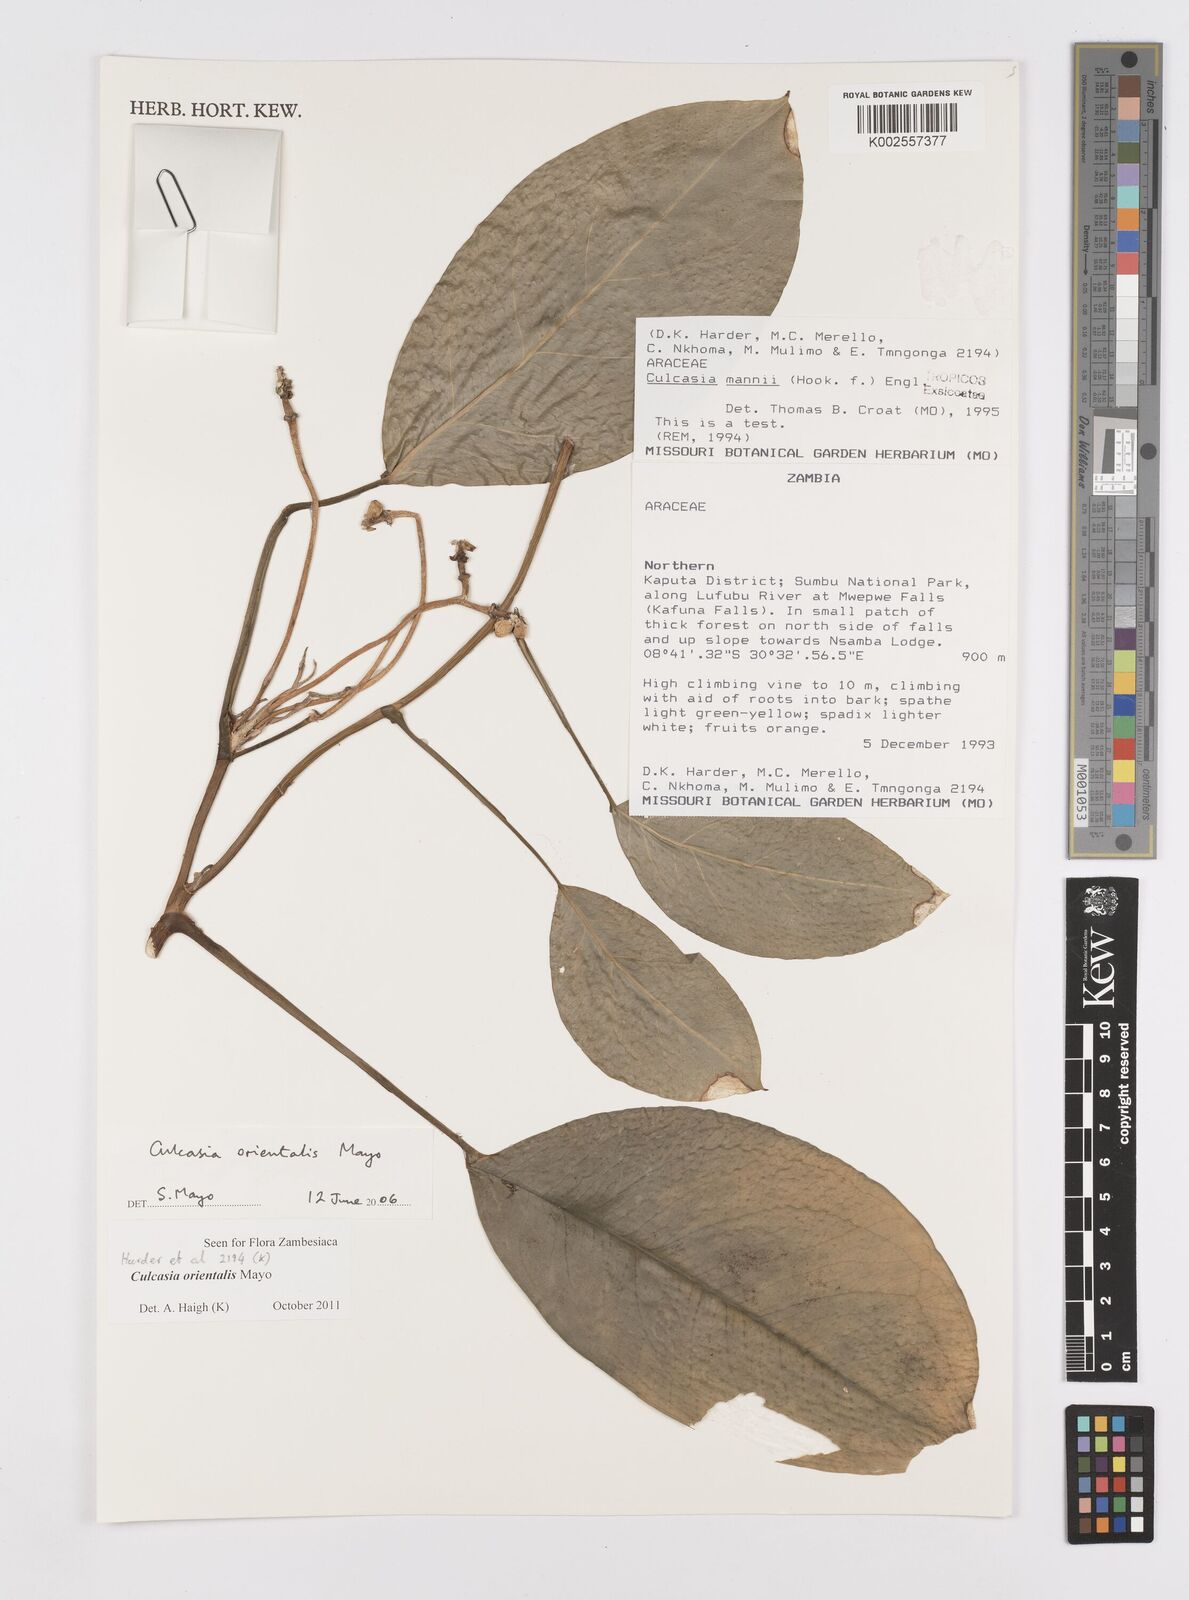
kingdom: Plantae
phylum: Tracheophyta
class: Liliopsida
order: Alismatales
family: Araceae
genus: Culcasia
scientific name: Culcasia orientalis
